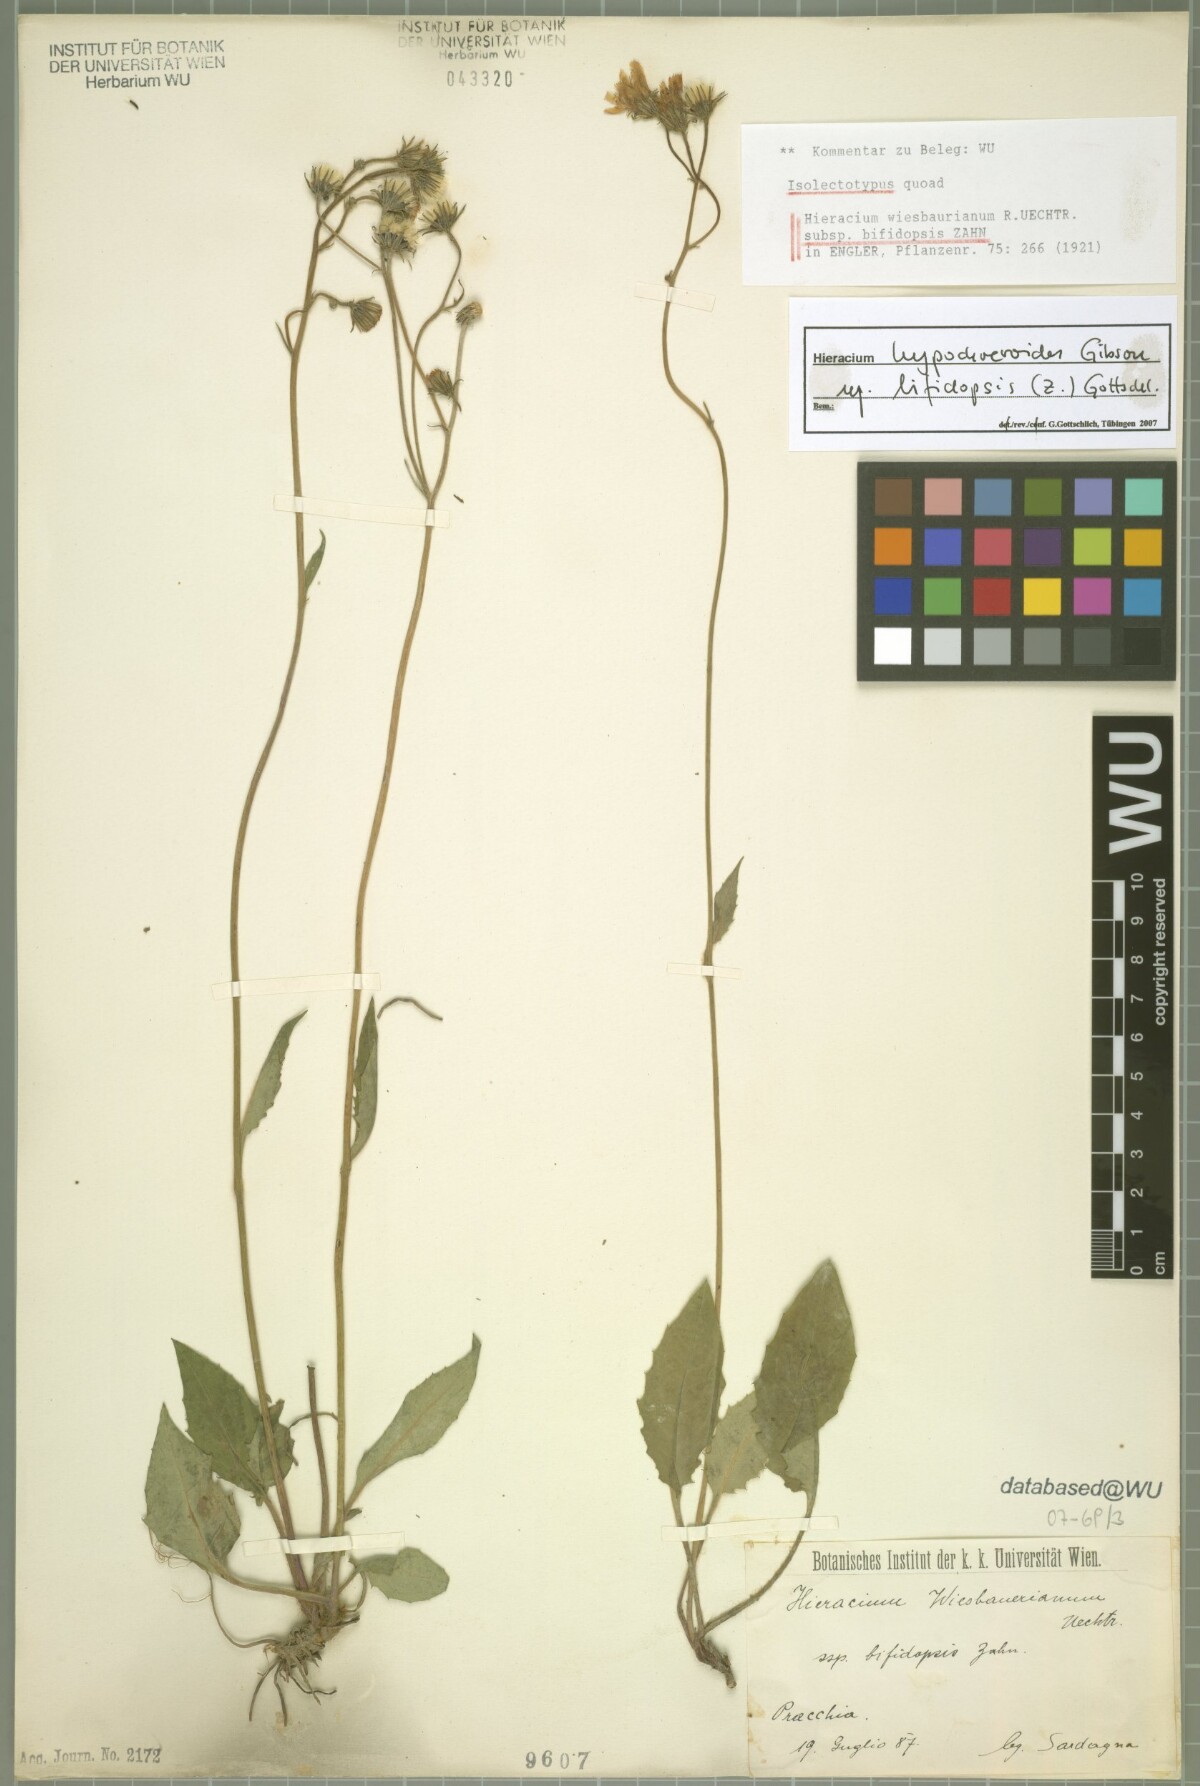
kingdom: Plantae
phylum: Tracheophyta
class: Magnoliopsida
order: Asterales
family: Asteraceae
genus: Hieracium
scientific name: Hieracium hypochoeroides
